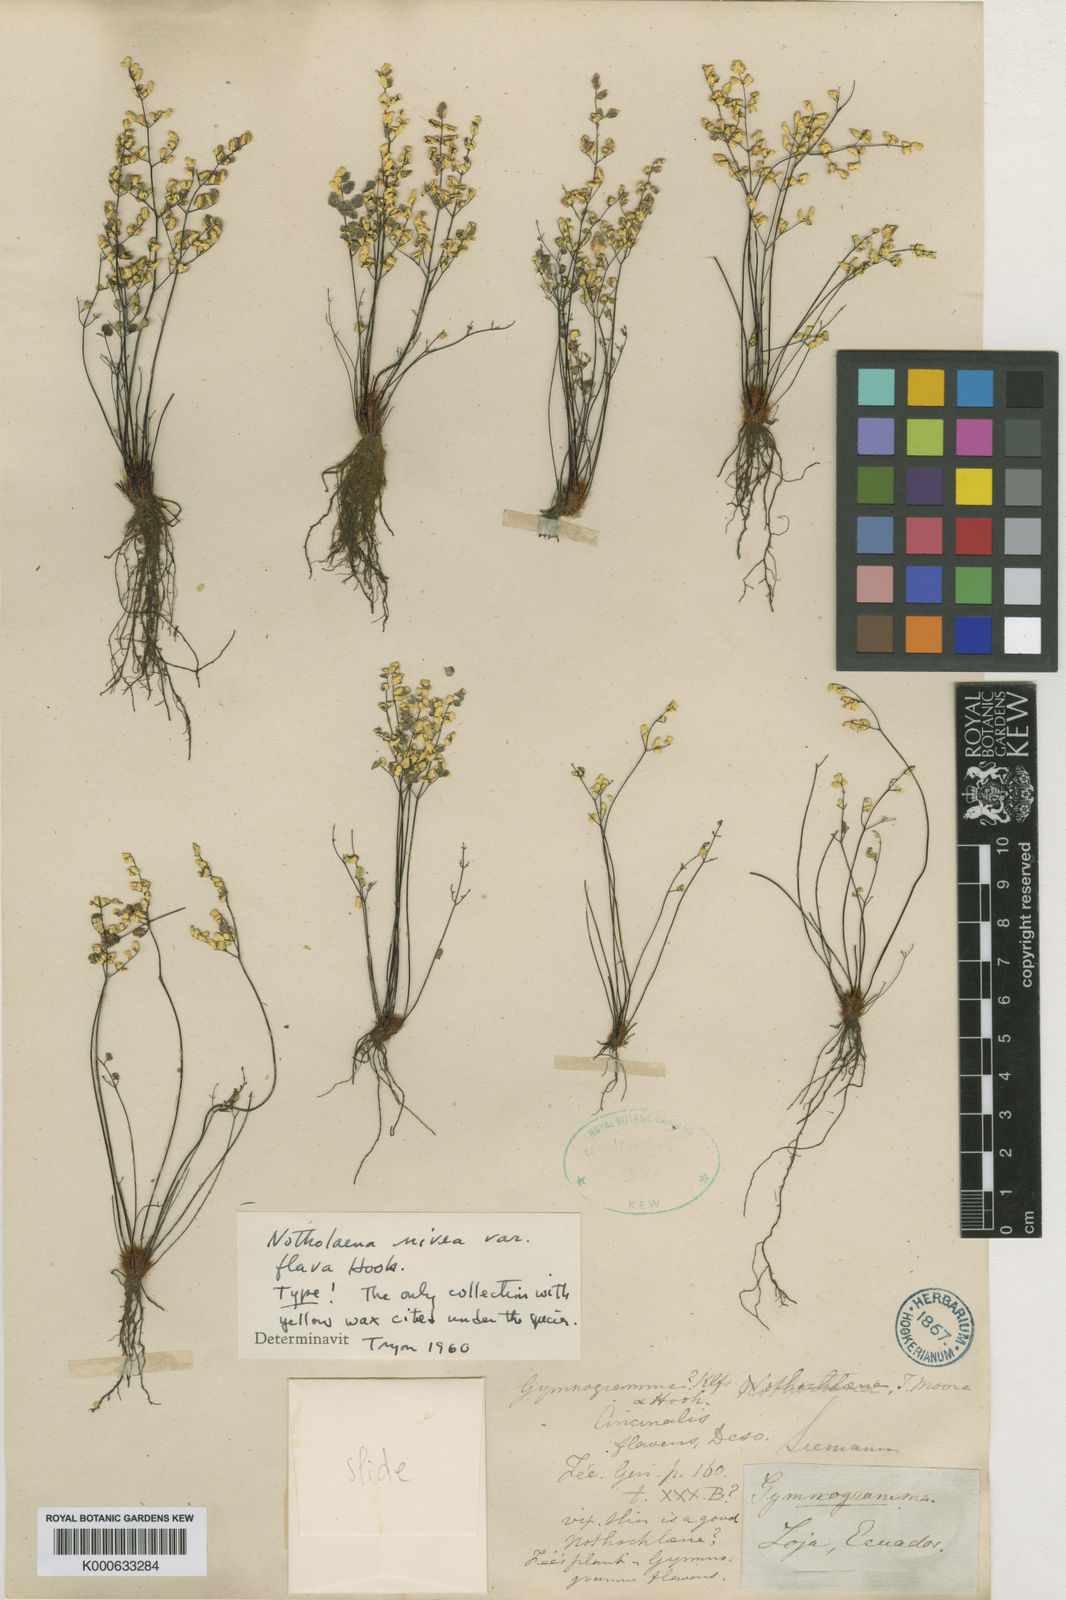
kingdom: Plantae
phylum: Tracheophyta
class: Polypodiopsida
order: Polypodiales
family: Pteridaceae
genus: Cheilanthes
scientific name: Cheilanthes
